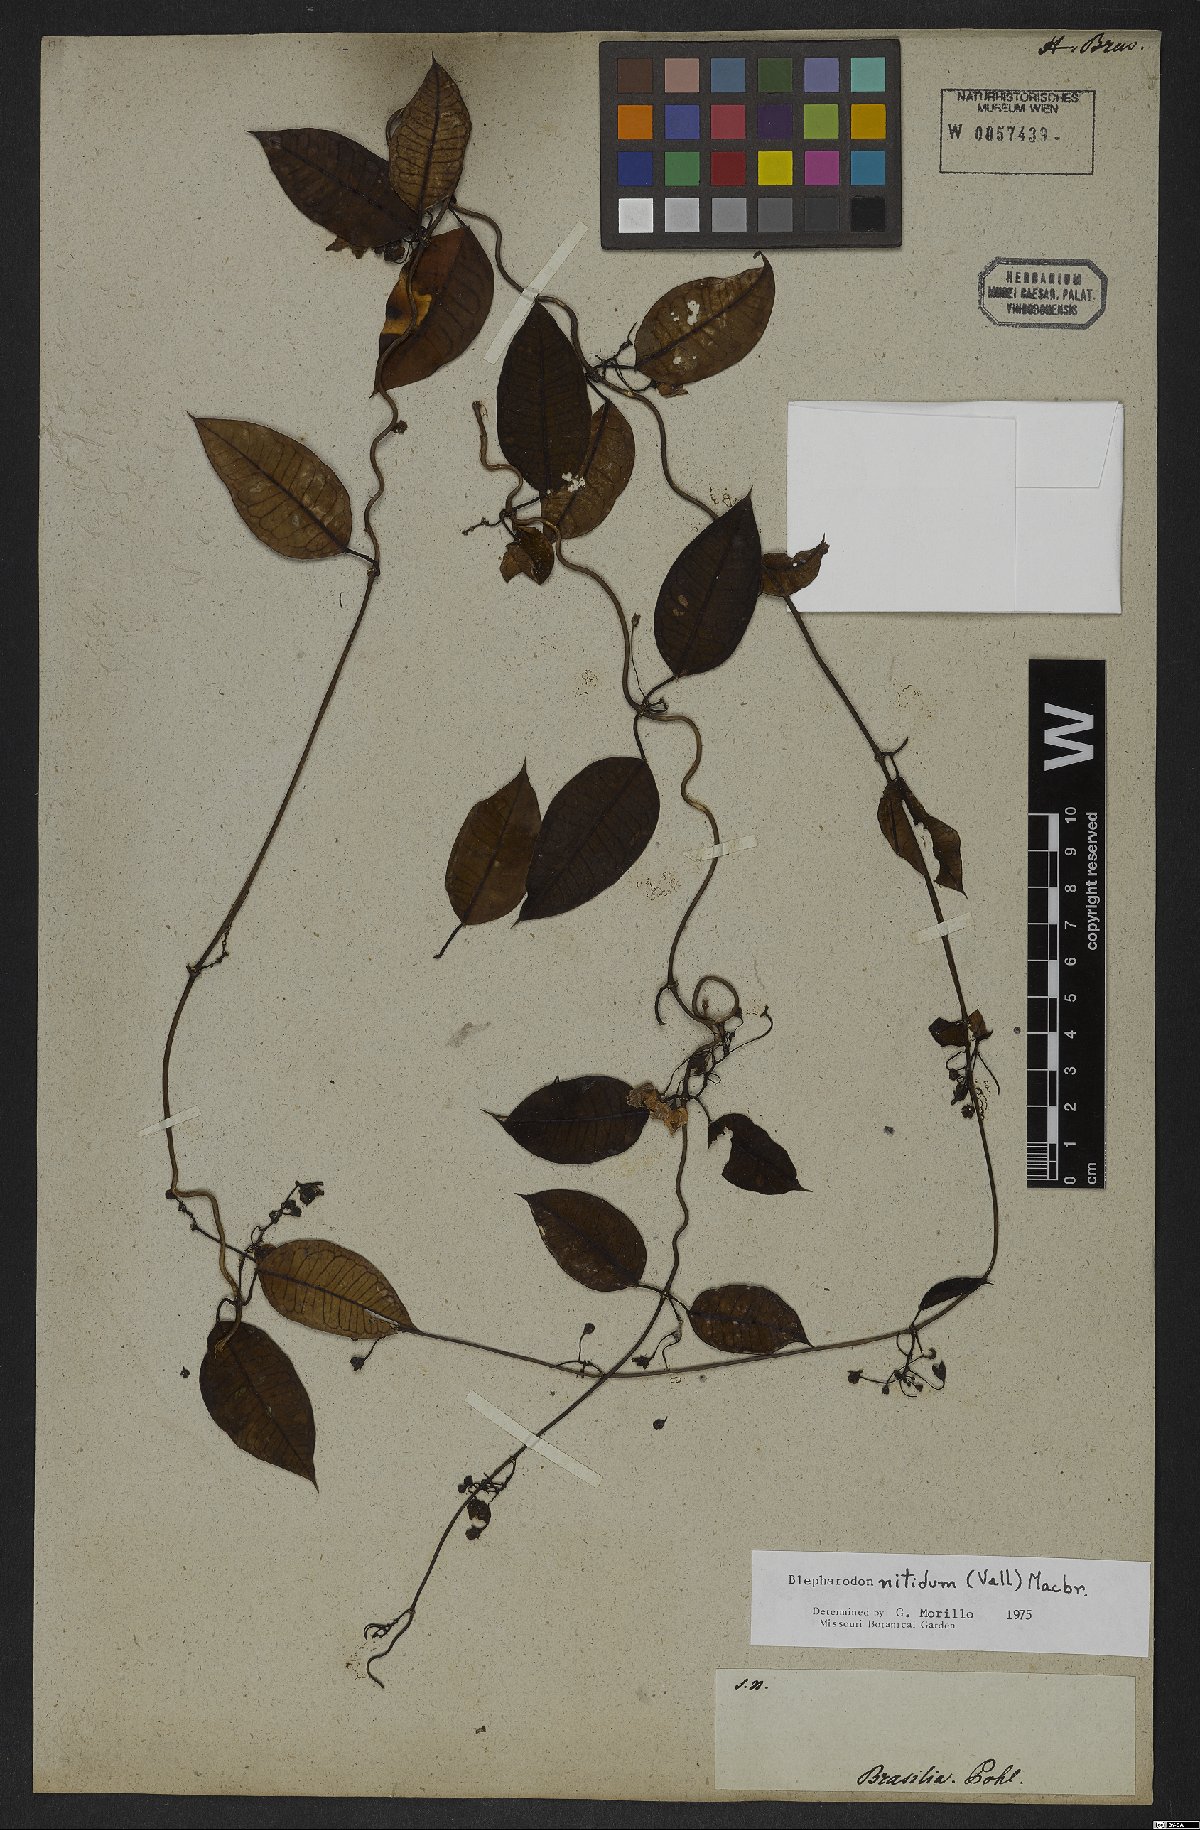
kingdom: Plantae
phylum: Tracheophyta
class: Magnoliopsida
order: Gentianales
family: Apocynaceae
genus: Blepharodon
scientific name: Blepharodon pictum
